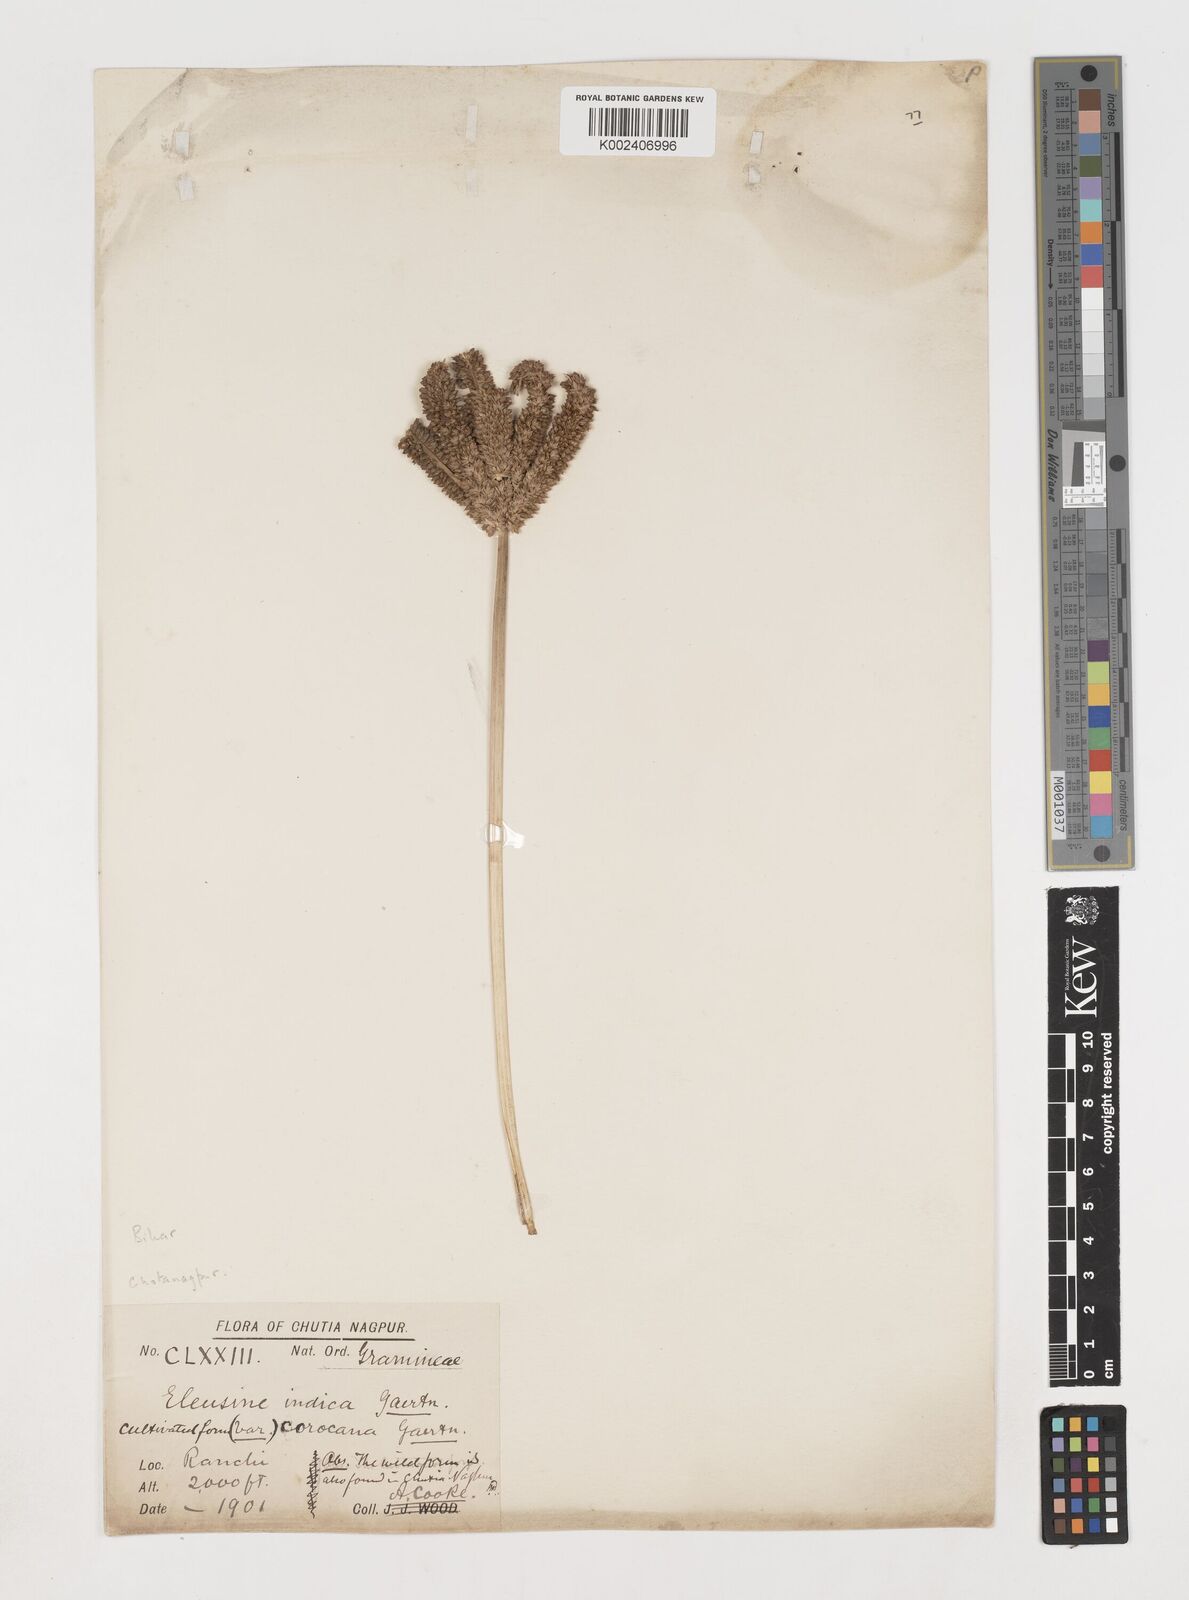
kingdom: Plantae
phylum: Tracheophyta
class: Liliopsida
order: Poales
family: Poaceae
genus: Eleusine
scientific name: Eleusine coracana
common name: Finger millet
